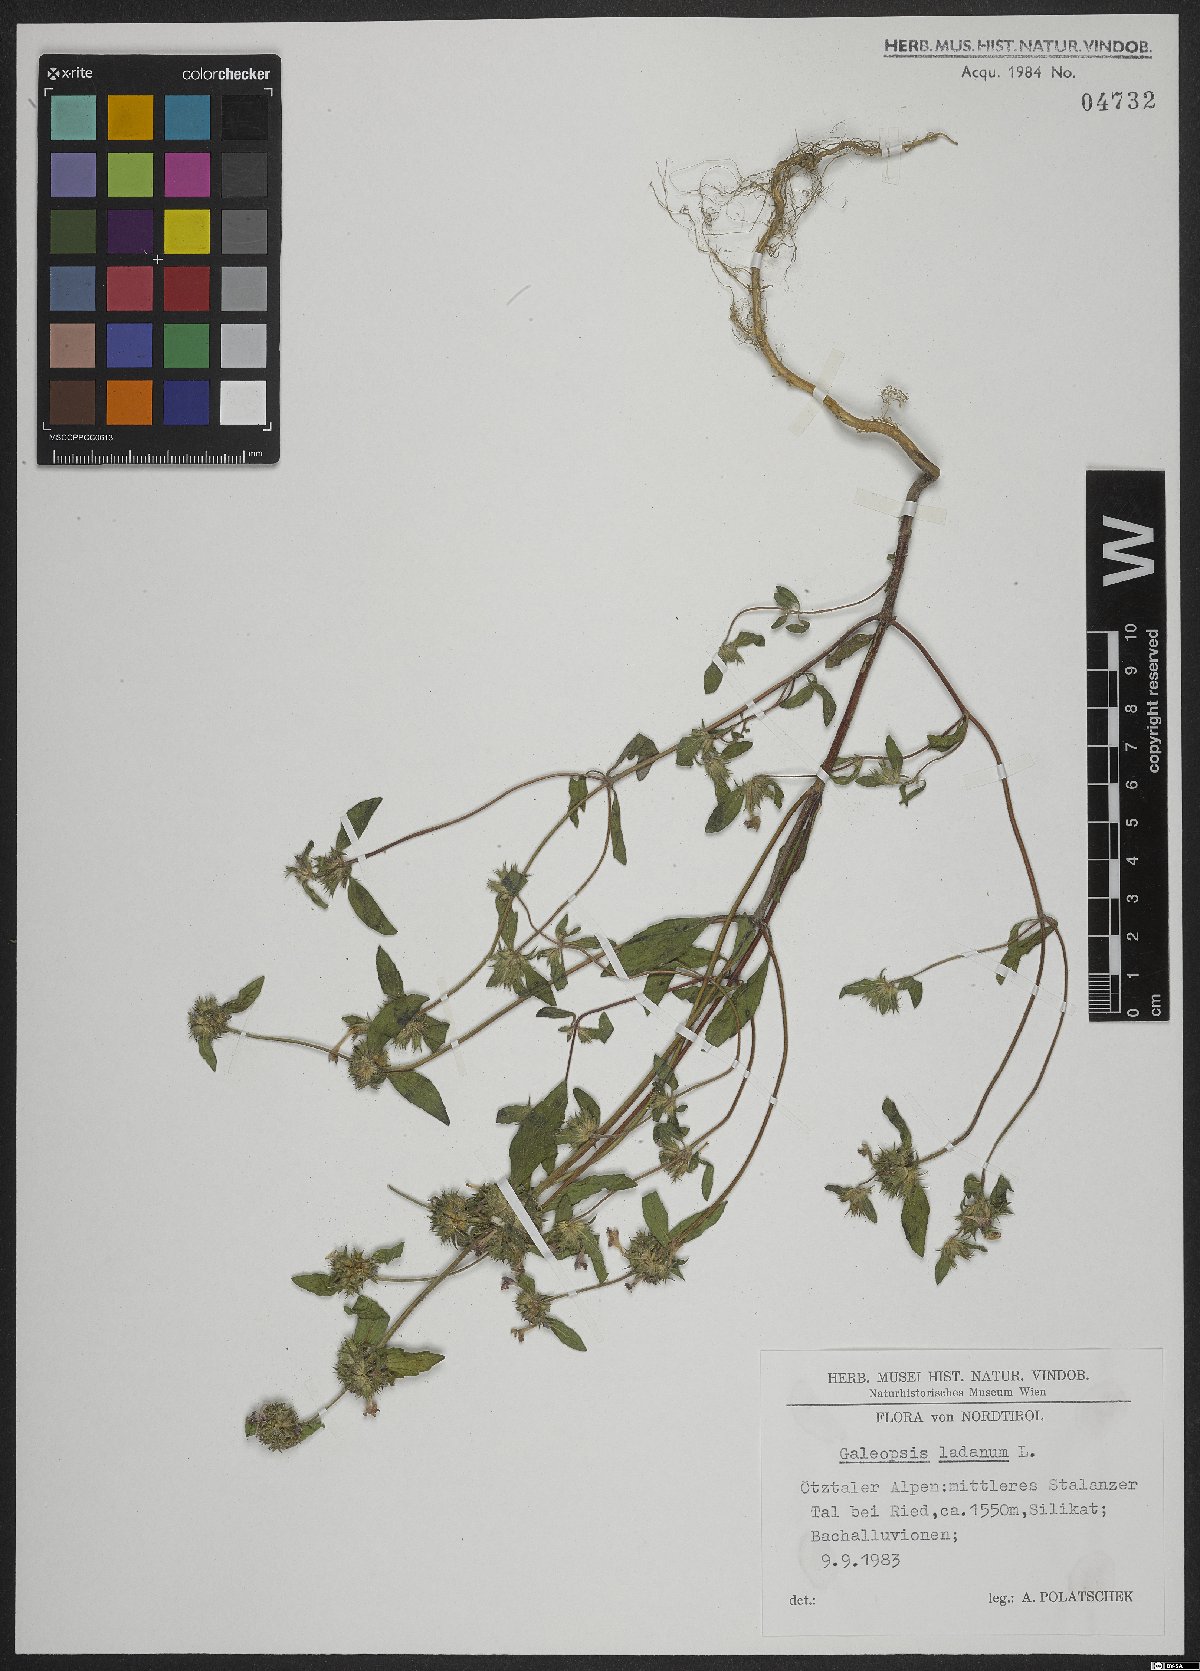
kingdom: Plantae
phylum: Tracheophyta
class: Magnoliopsida
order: Lamiales
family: Lamiaceae
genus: Galeopsis
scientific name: Galeopsis ladanum
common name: Broad-leaved hemp-nettle
